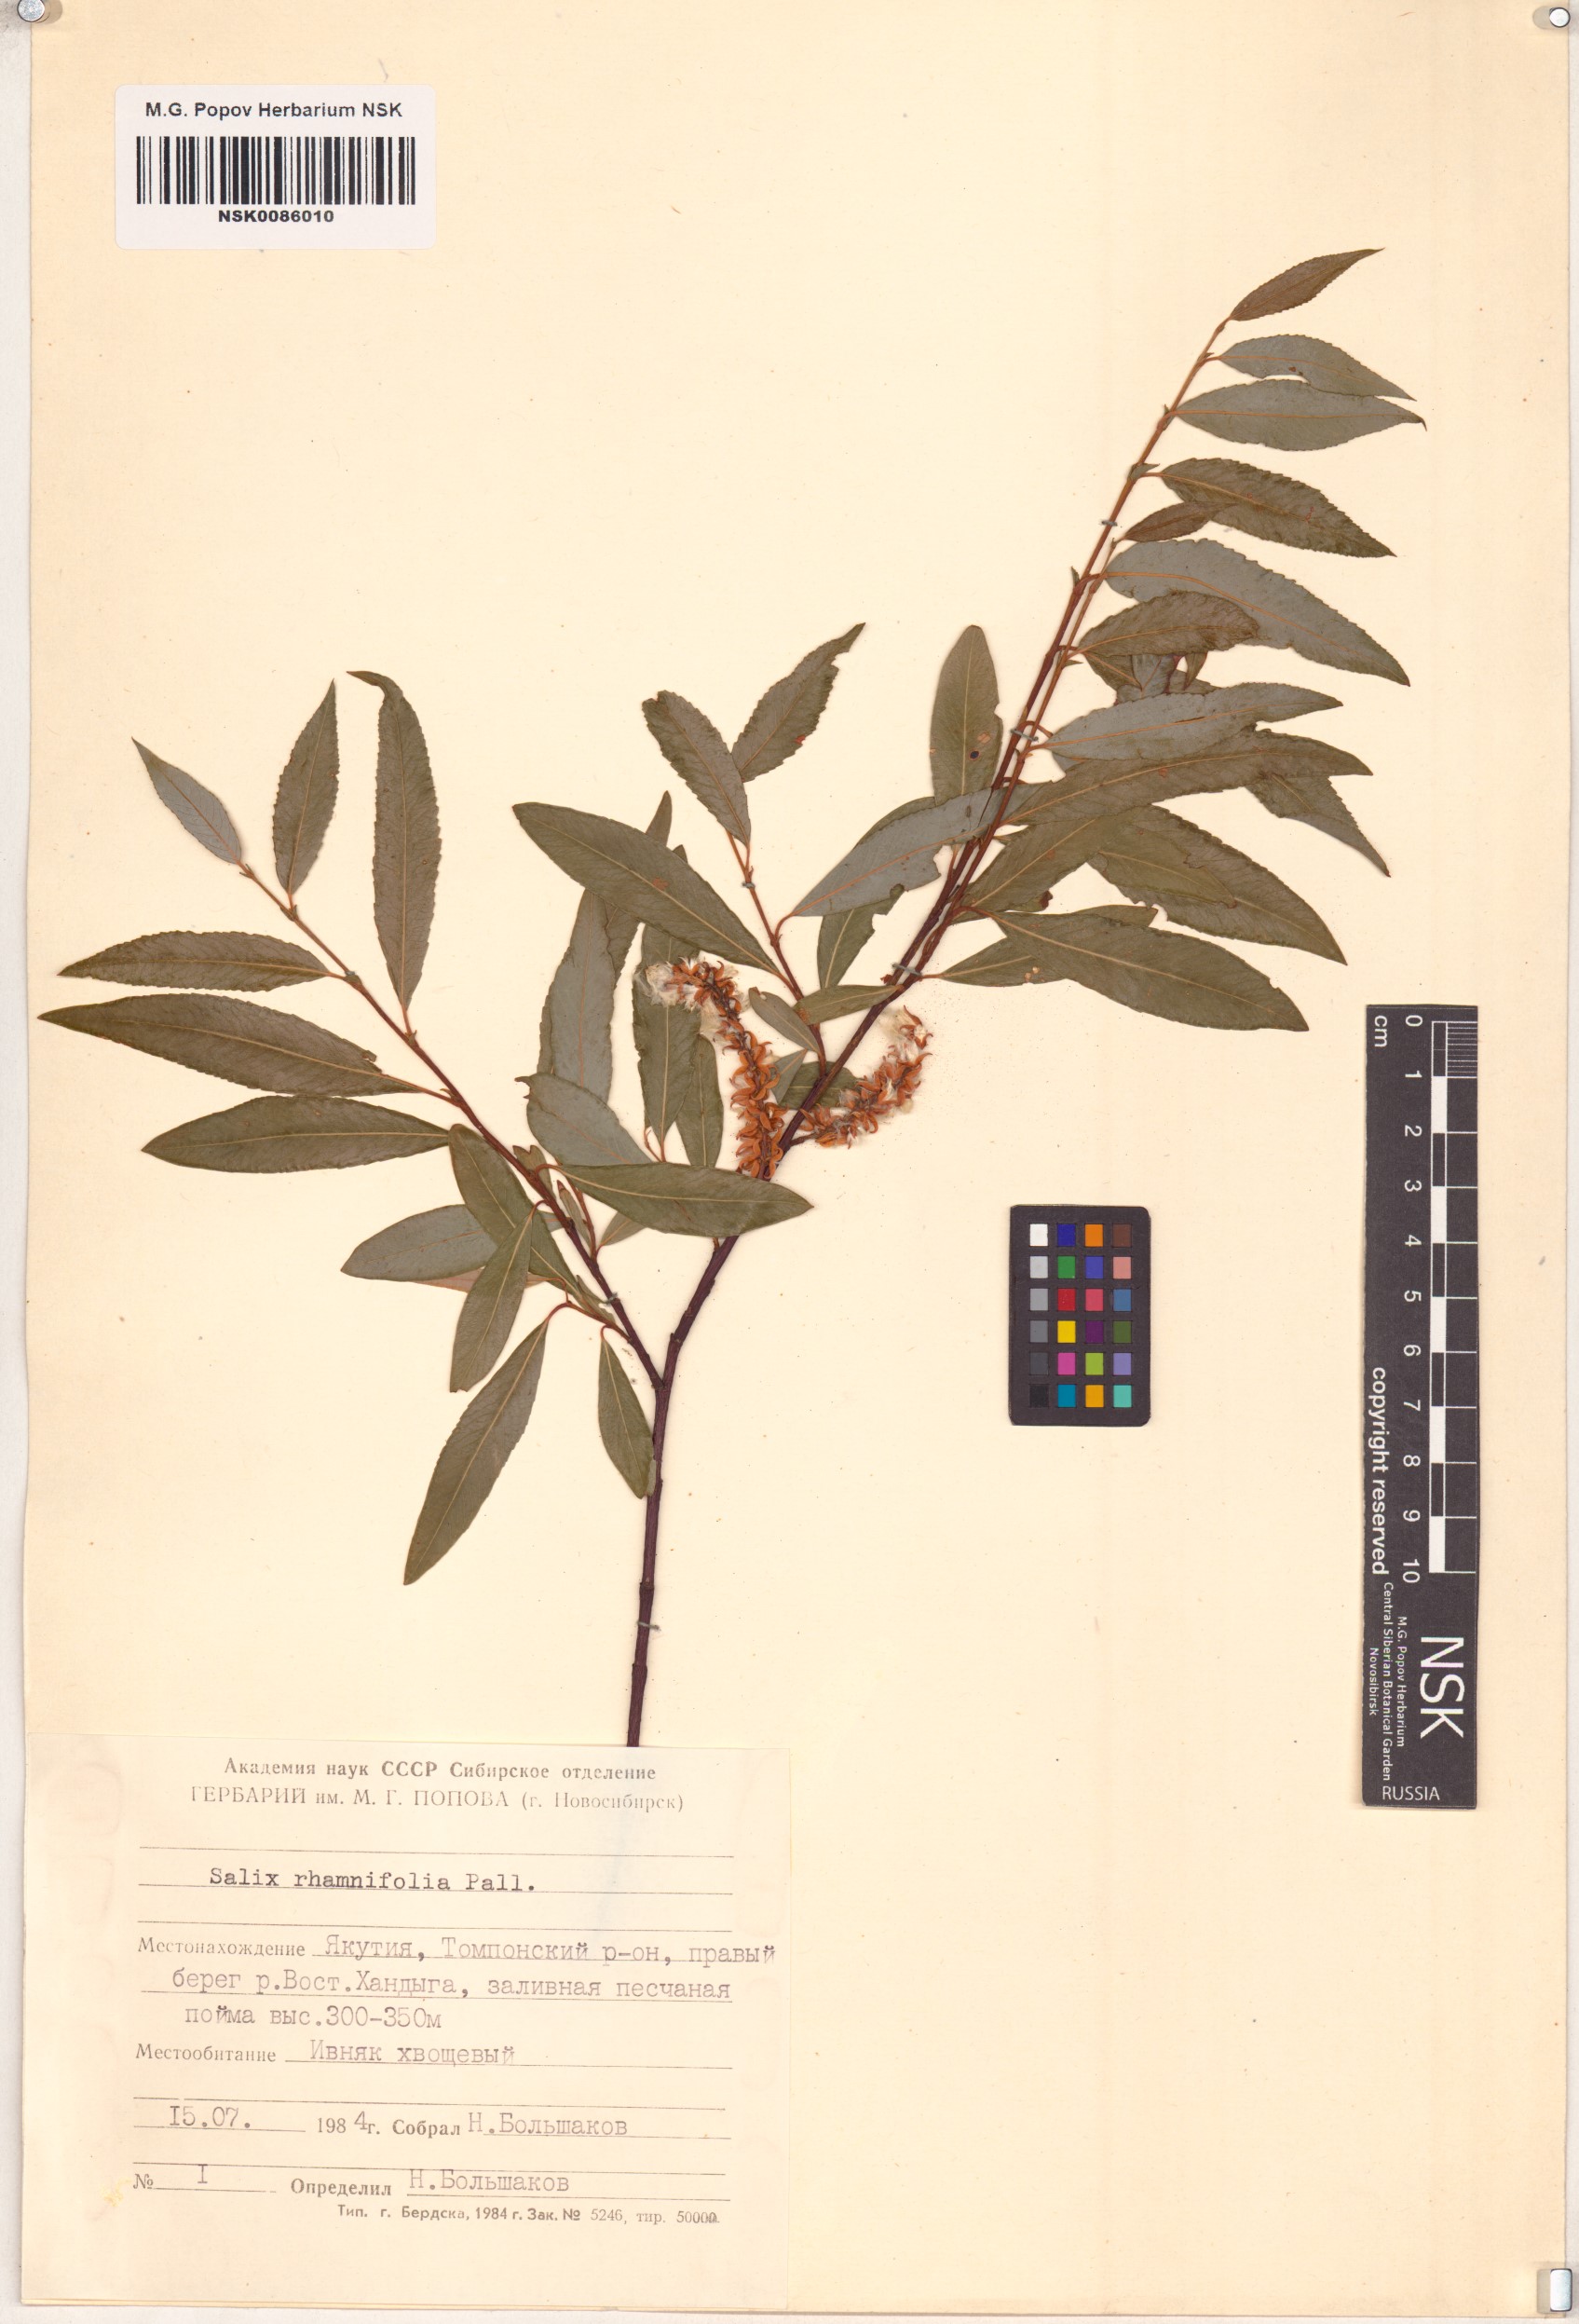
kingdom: Plantae
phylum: Tracheophyta
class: Magnoliopsida
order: Malpighiales
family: Salicaceae
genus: Salix
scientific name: Salix rhamnifolia
